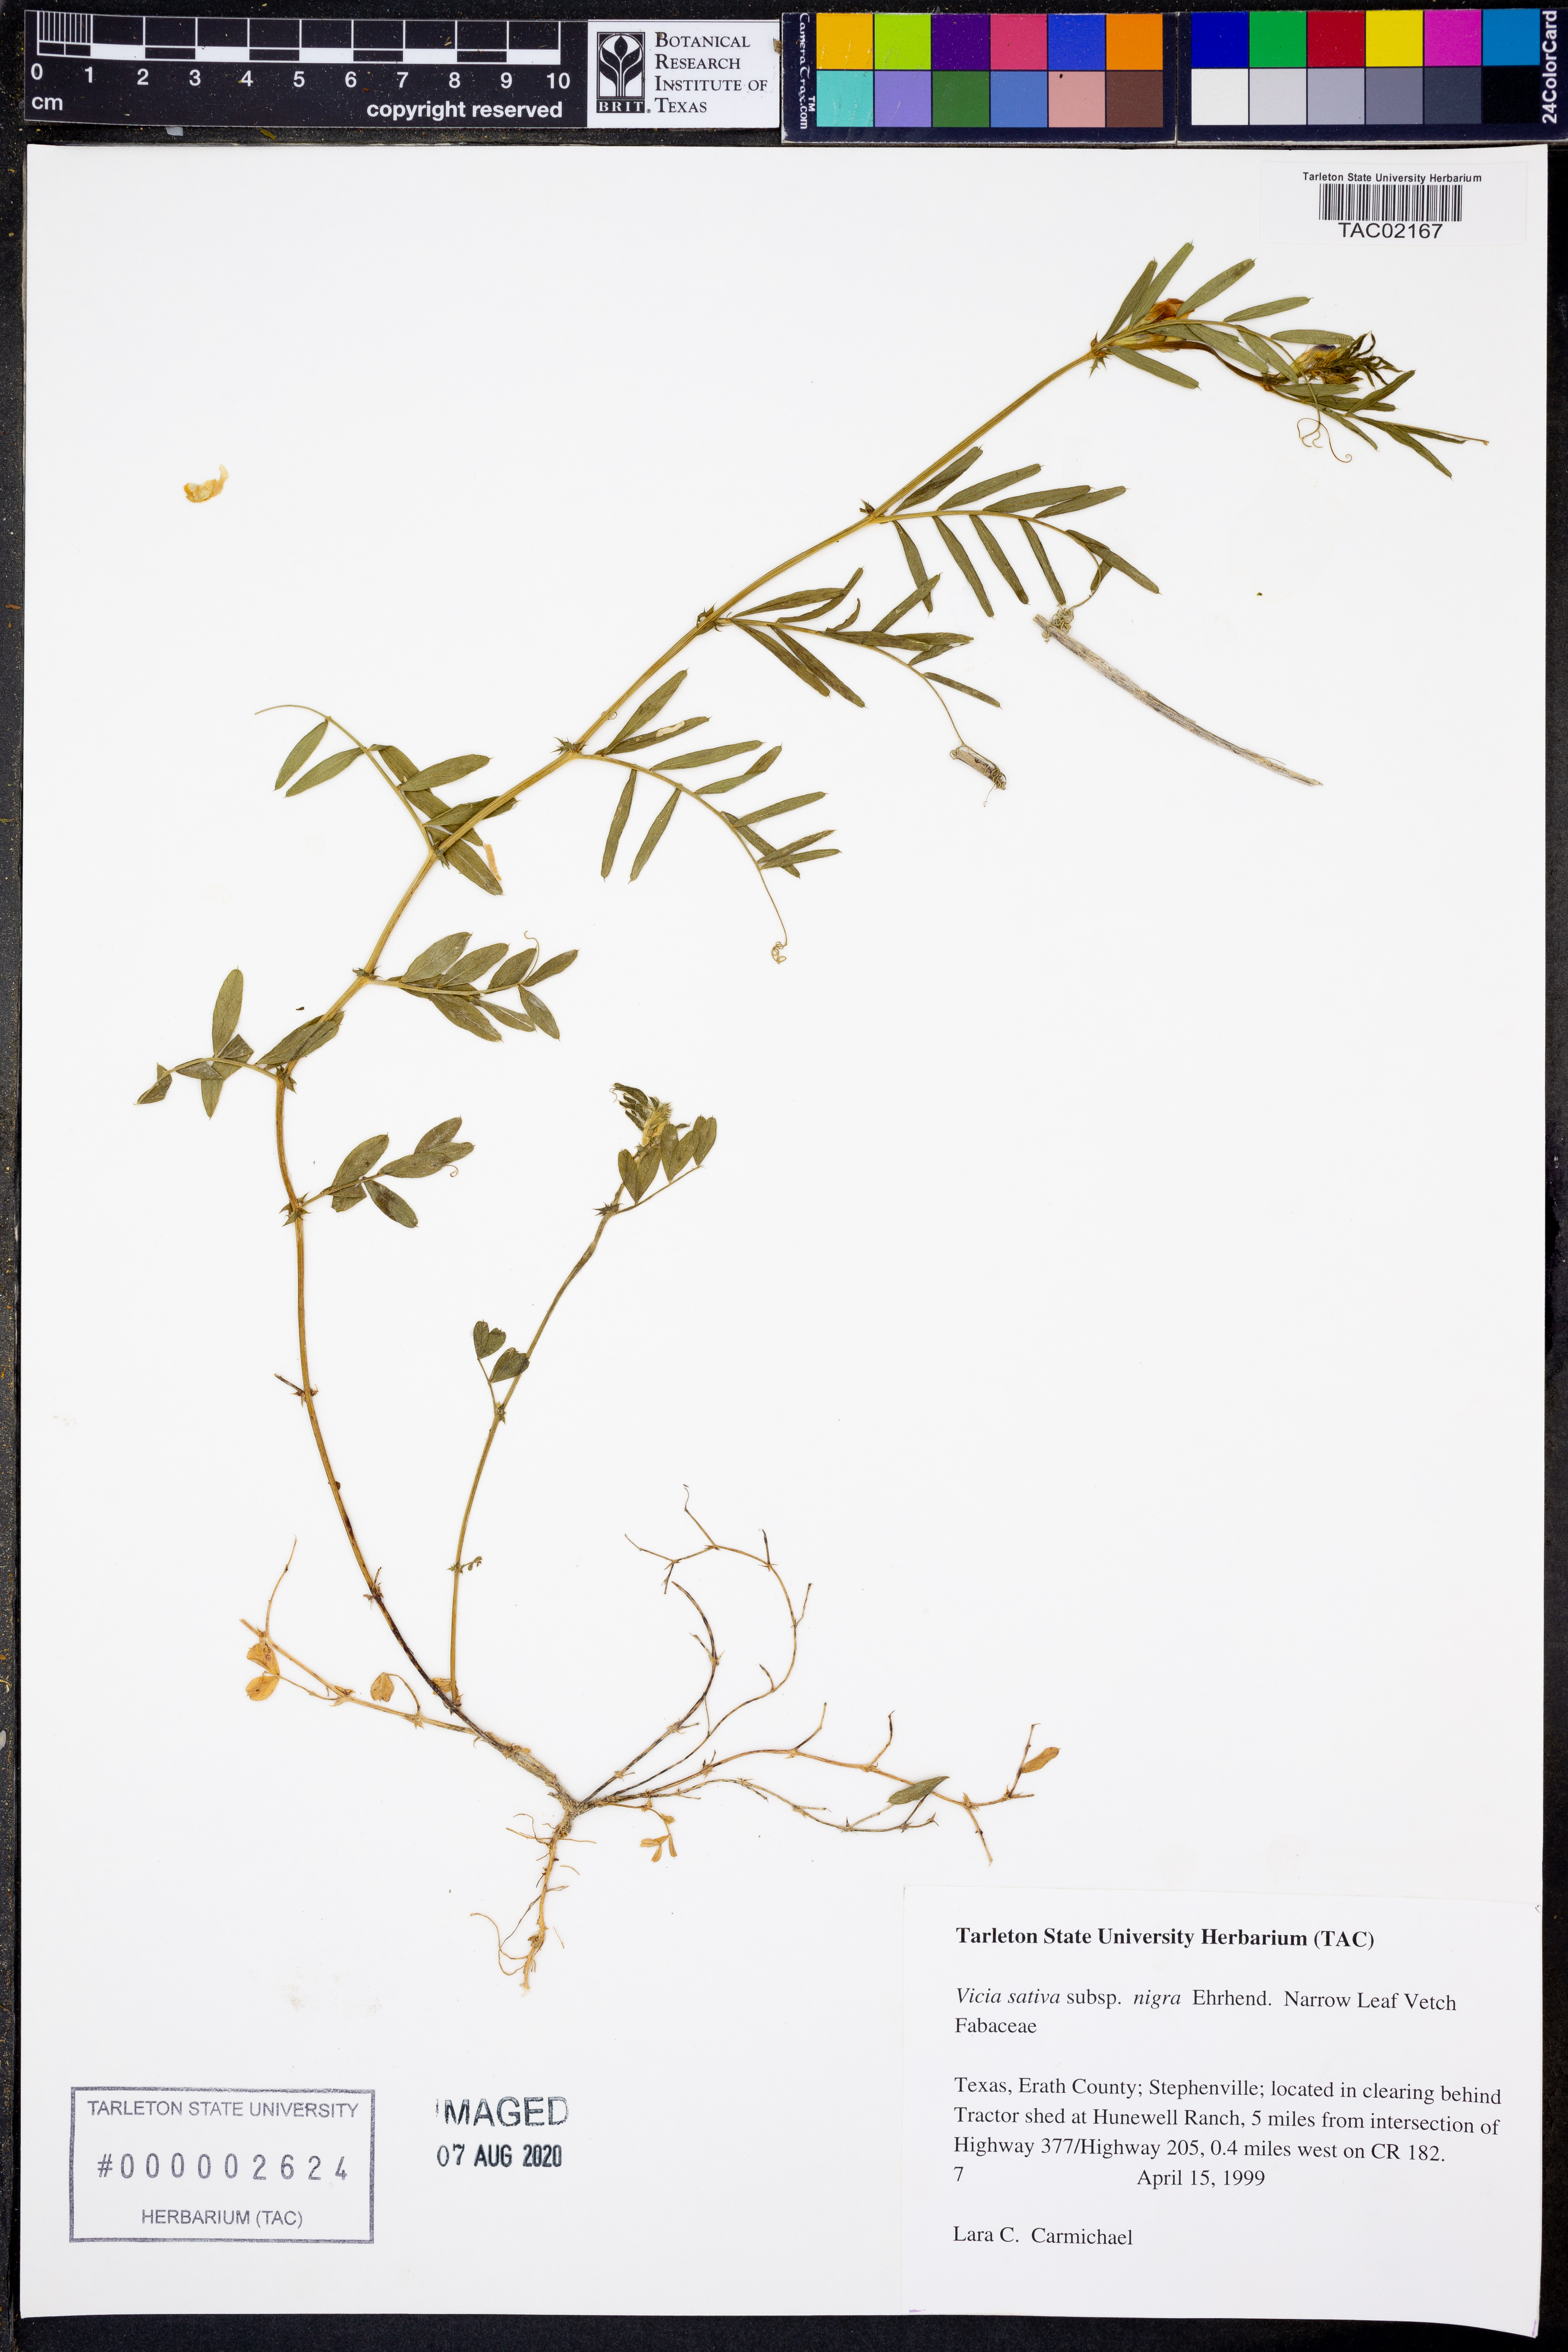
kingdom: Plantae
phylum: Tracheophyta
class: Magnoliopsida
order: Fabales
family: Fabaceae
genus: Vicia
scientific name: Vicia sativa
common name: Garden vetch
